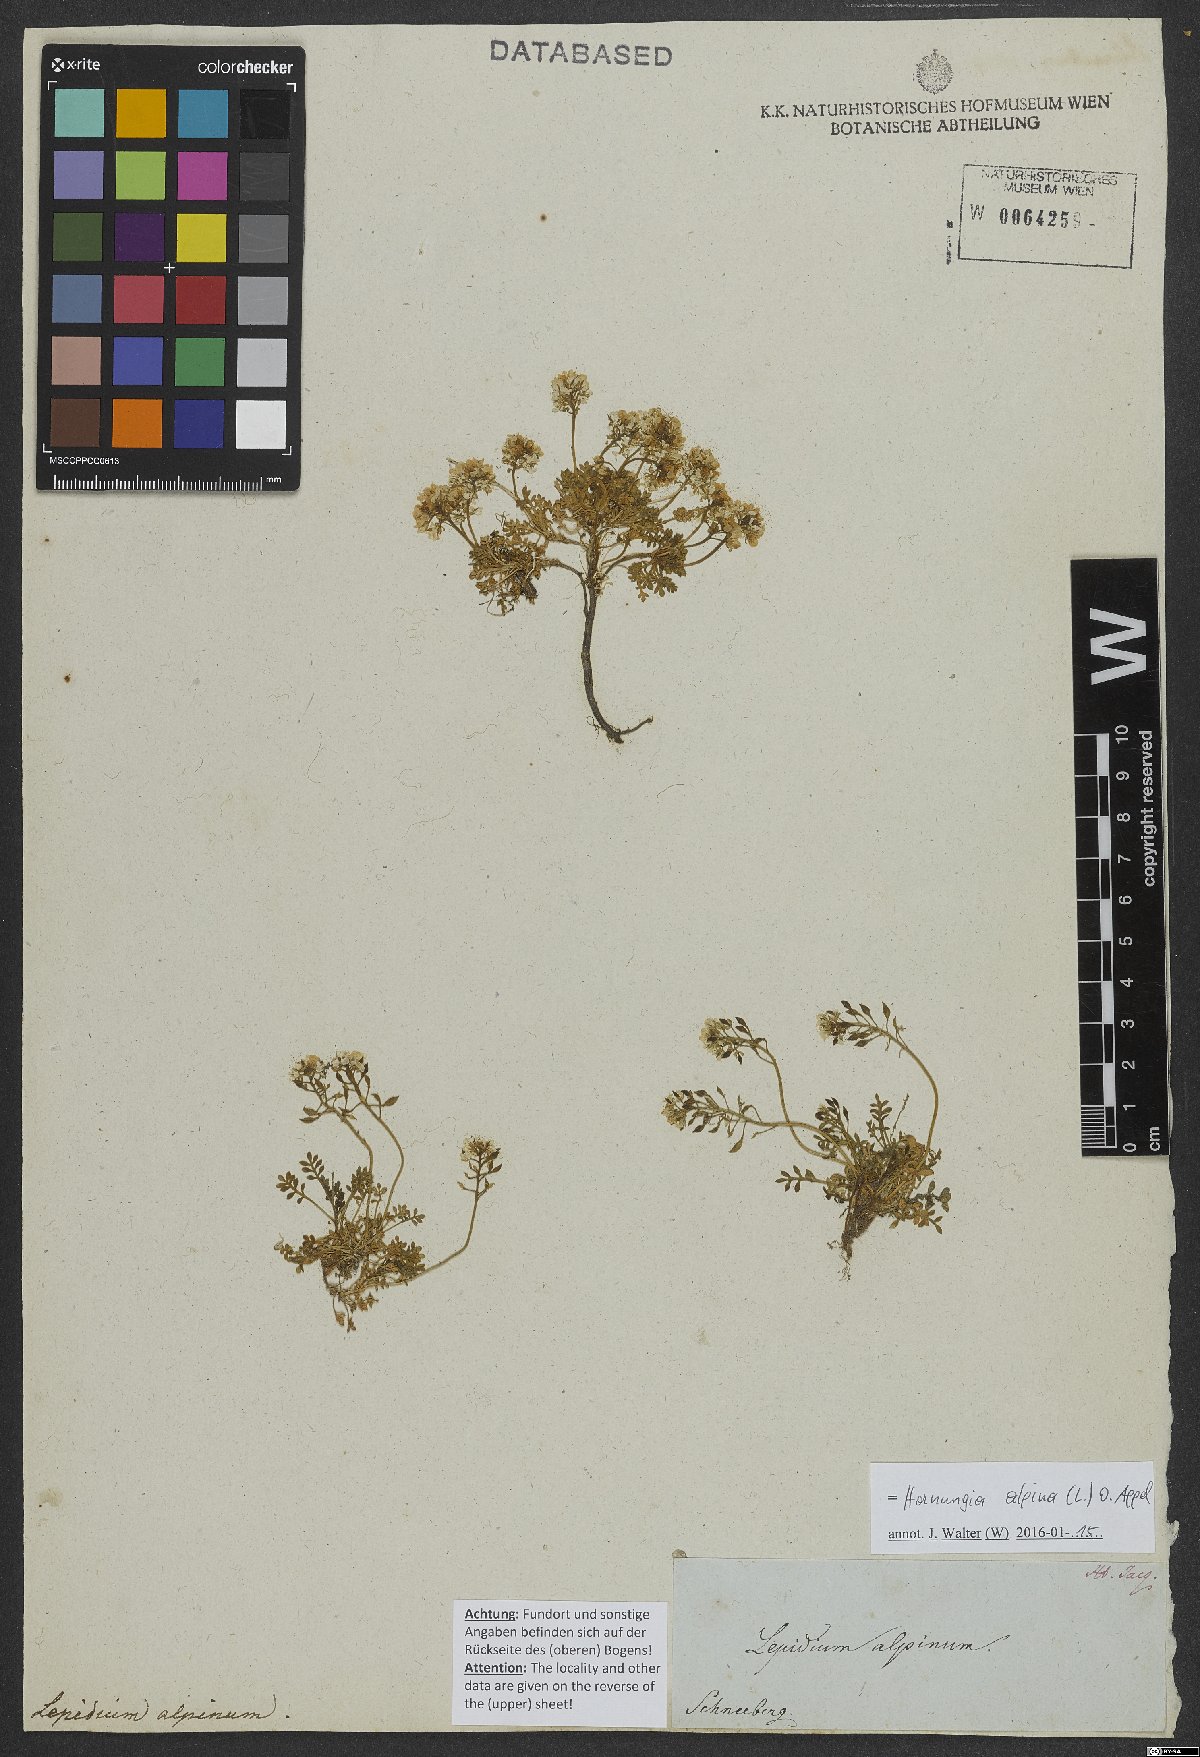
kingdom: Plantae
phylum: Tracheophyta
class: Magnoliopsida
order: Brassicales
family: Brassicaceae
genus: Hornungia
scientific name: Hornungia alpina
